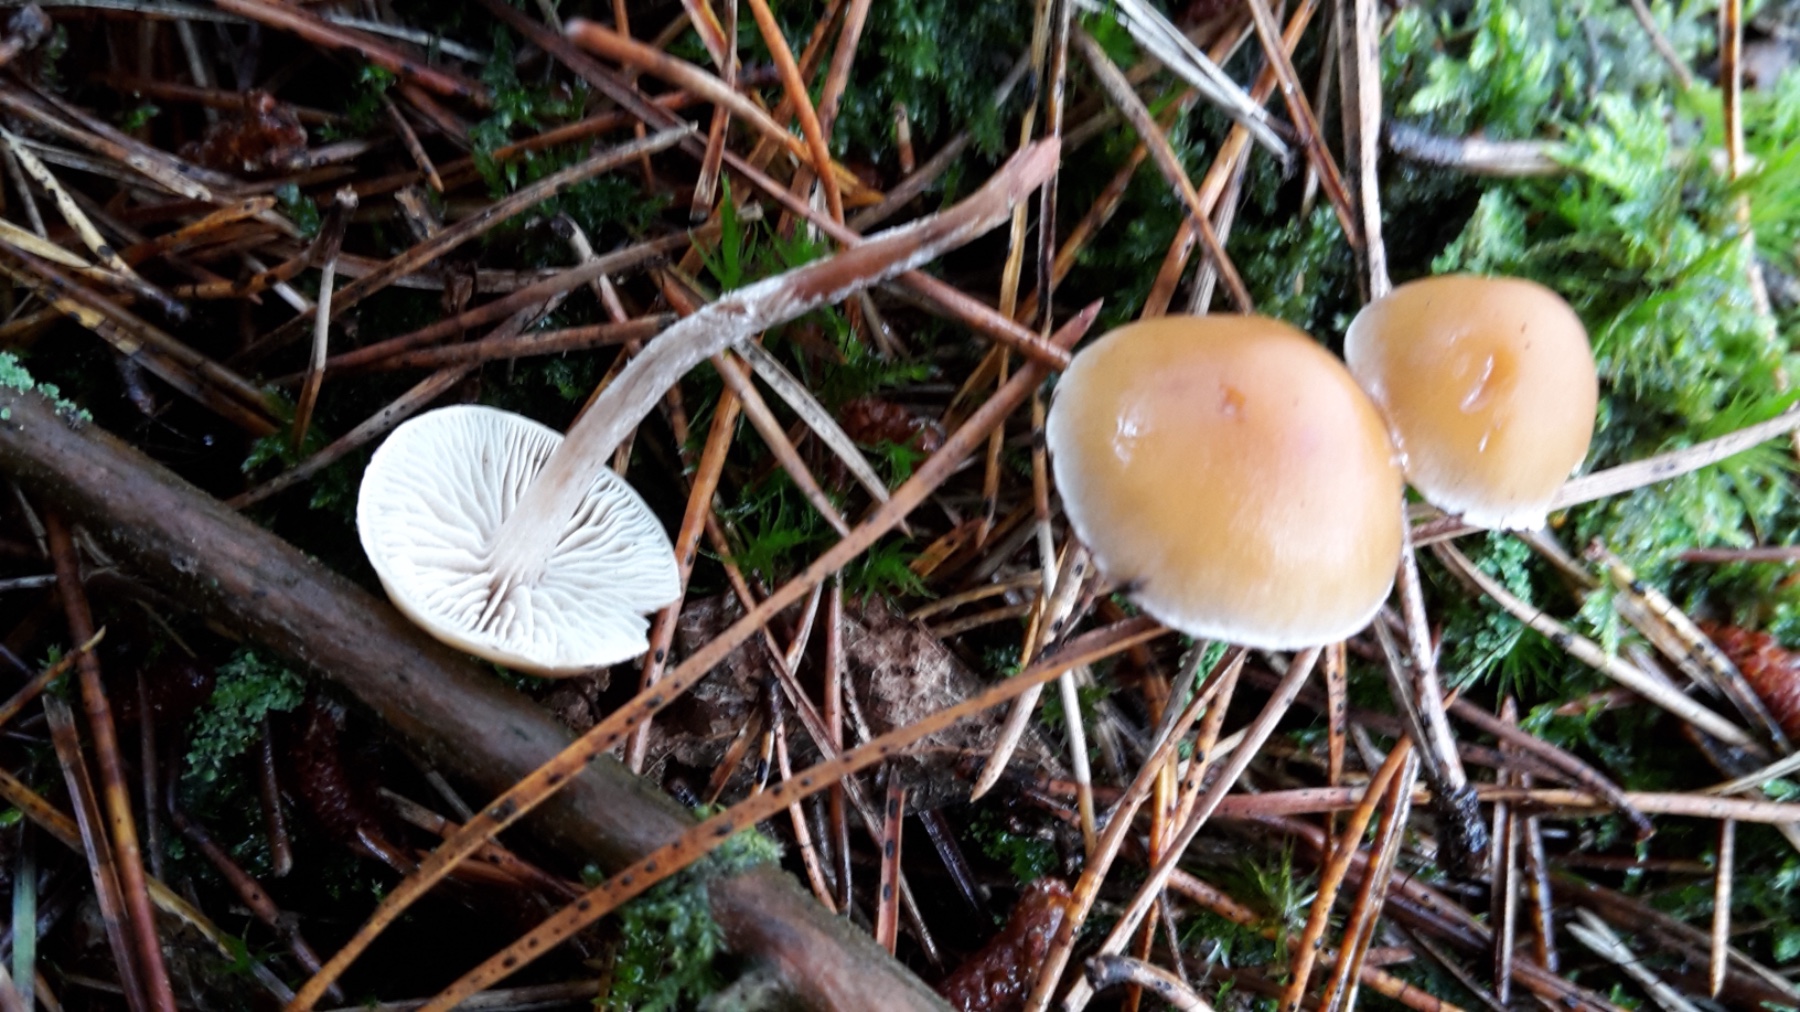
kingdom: Fungi
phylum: Basidiomycota
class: Agaricomycetes
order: Agaricales
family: Strophariaceae
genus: Hypholoma
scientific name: Hypholoma marginatum
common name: enlig svovlhat
